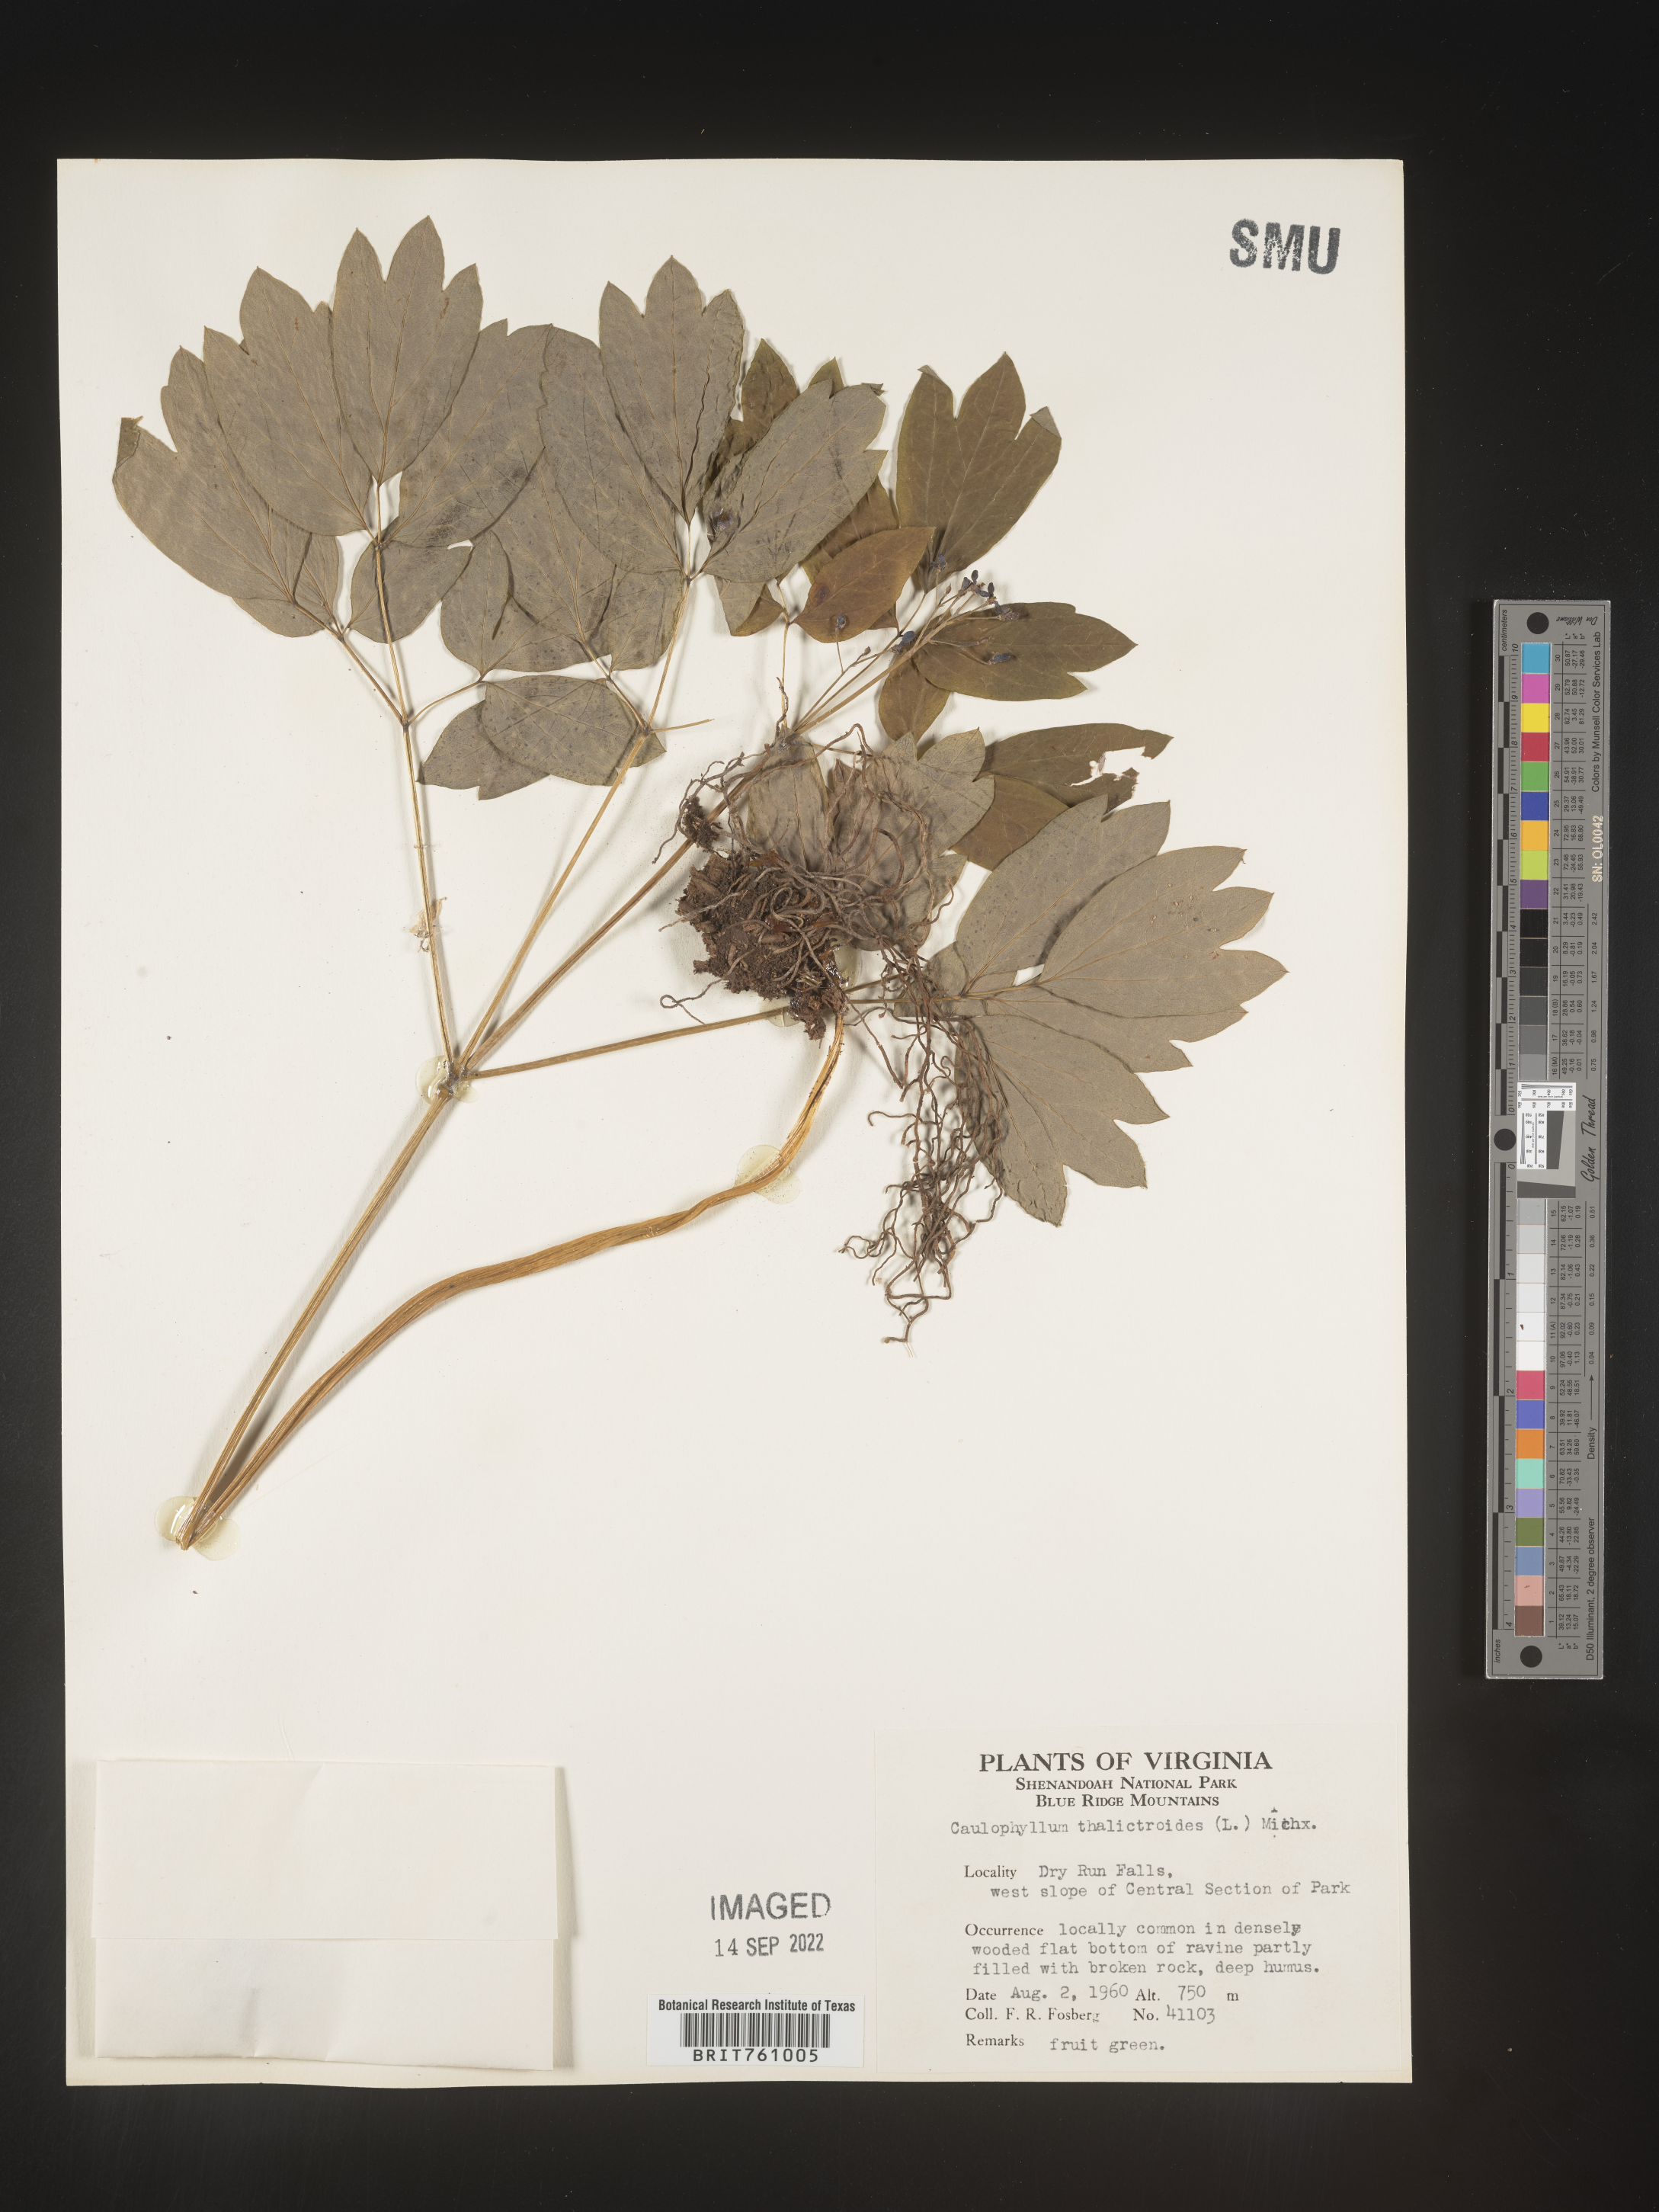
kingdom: Plantae
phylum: Tracheophyta
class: Magnoliopsida
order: Ranunculales
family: Berberidaceae
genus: Caulophyllum
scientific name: Caulophyllum thalictroides
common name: Blue cohosh
